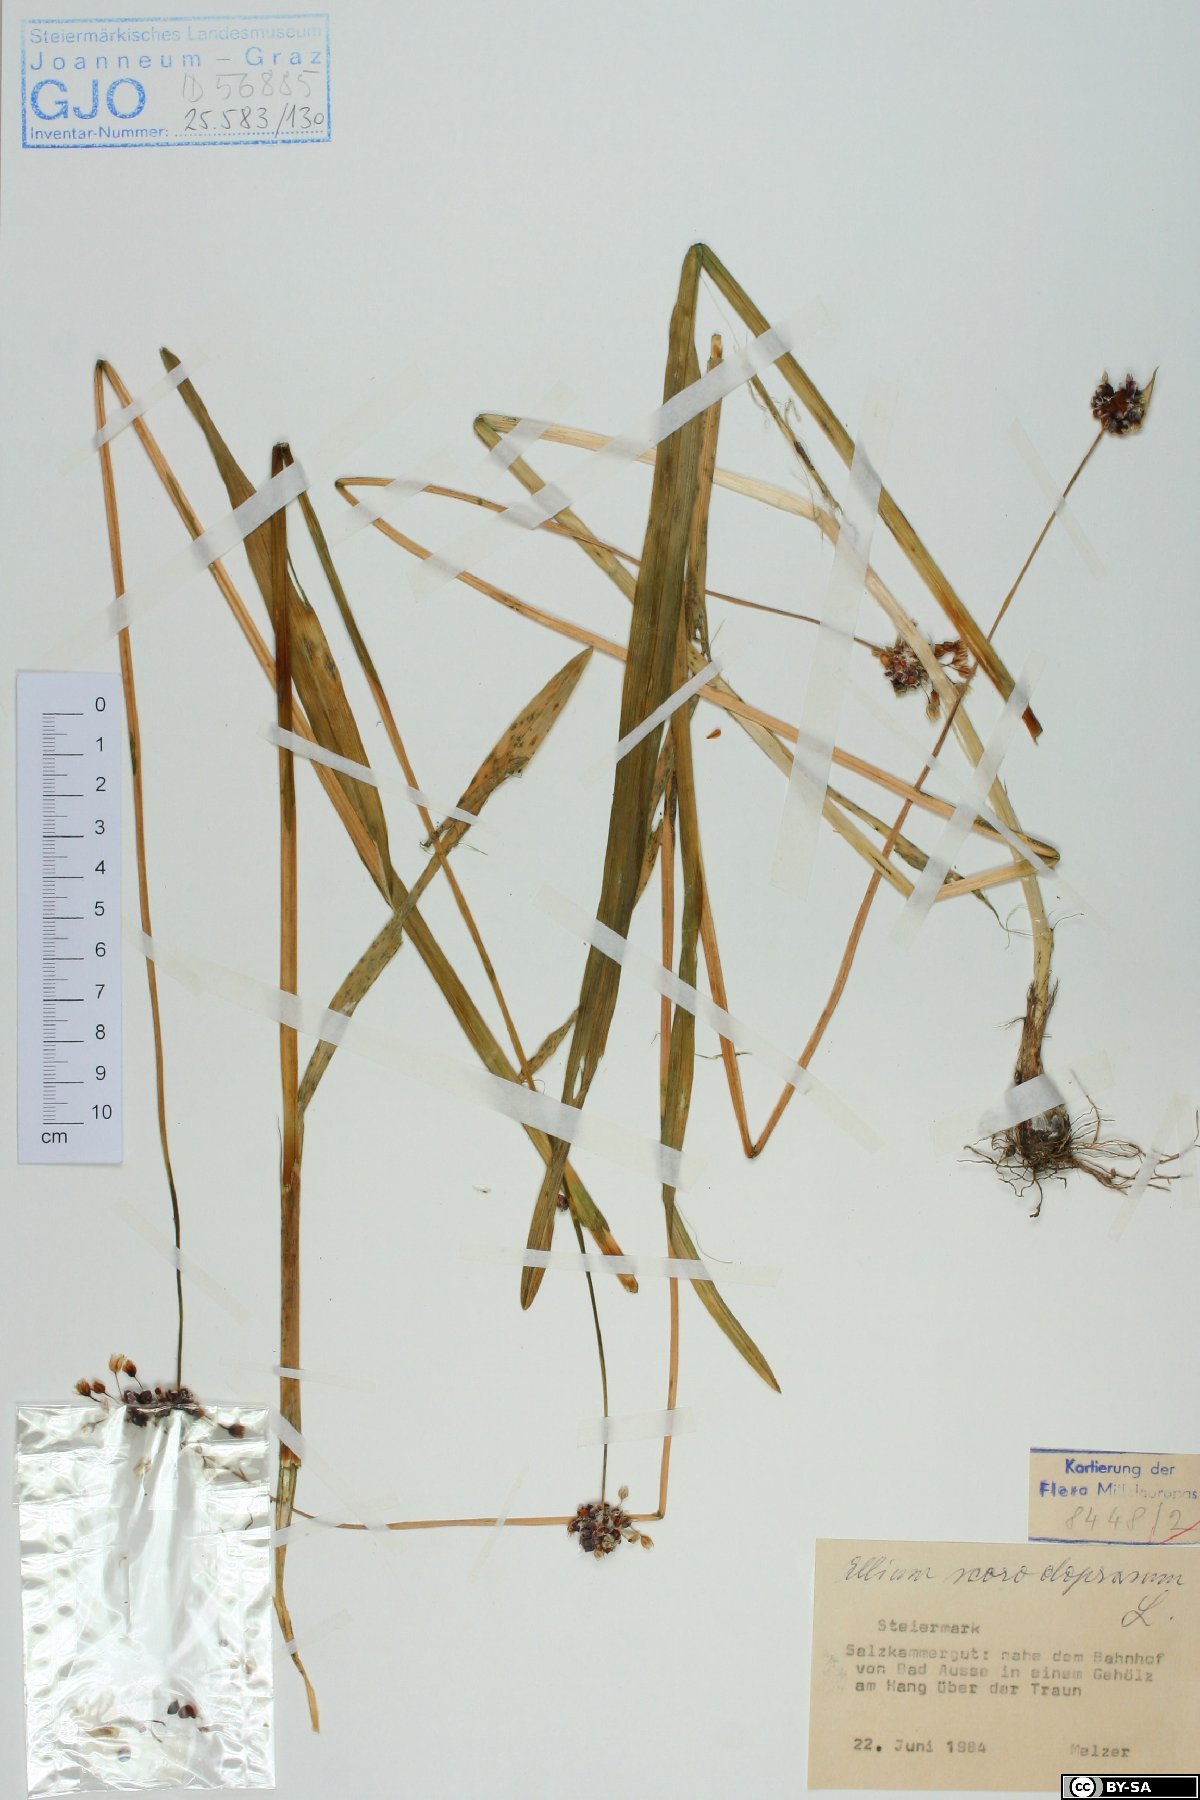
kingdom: Plantae
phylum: Tracheophyta
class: Liliopsida
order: Asparagales
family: Amaryllidaceae
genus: Allium
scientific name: Allium scorodoprasum
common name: Sand leek
